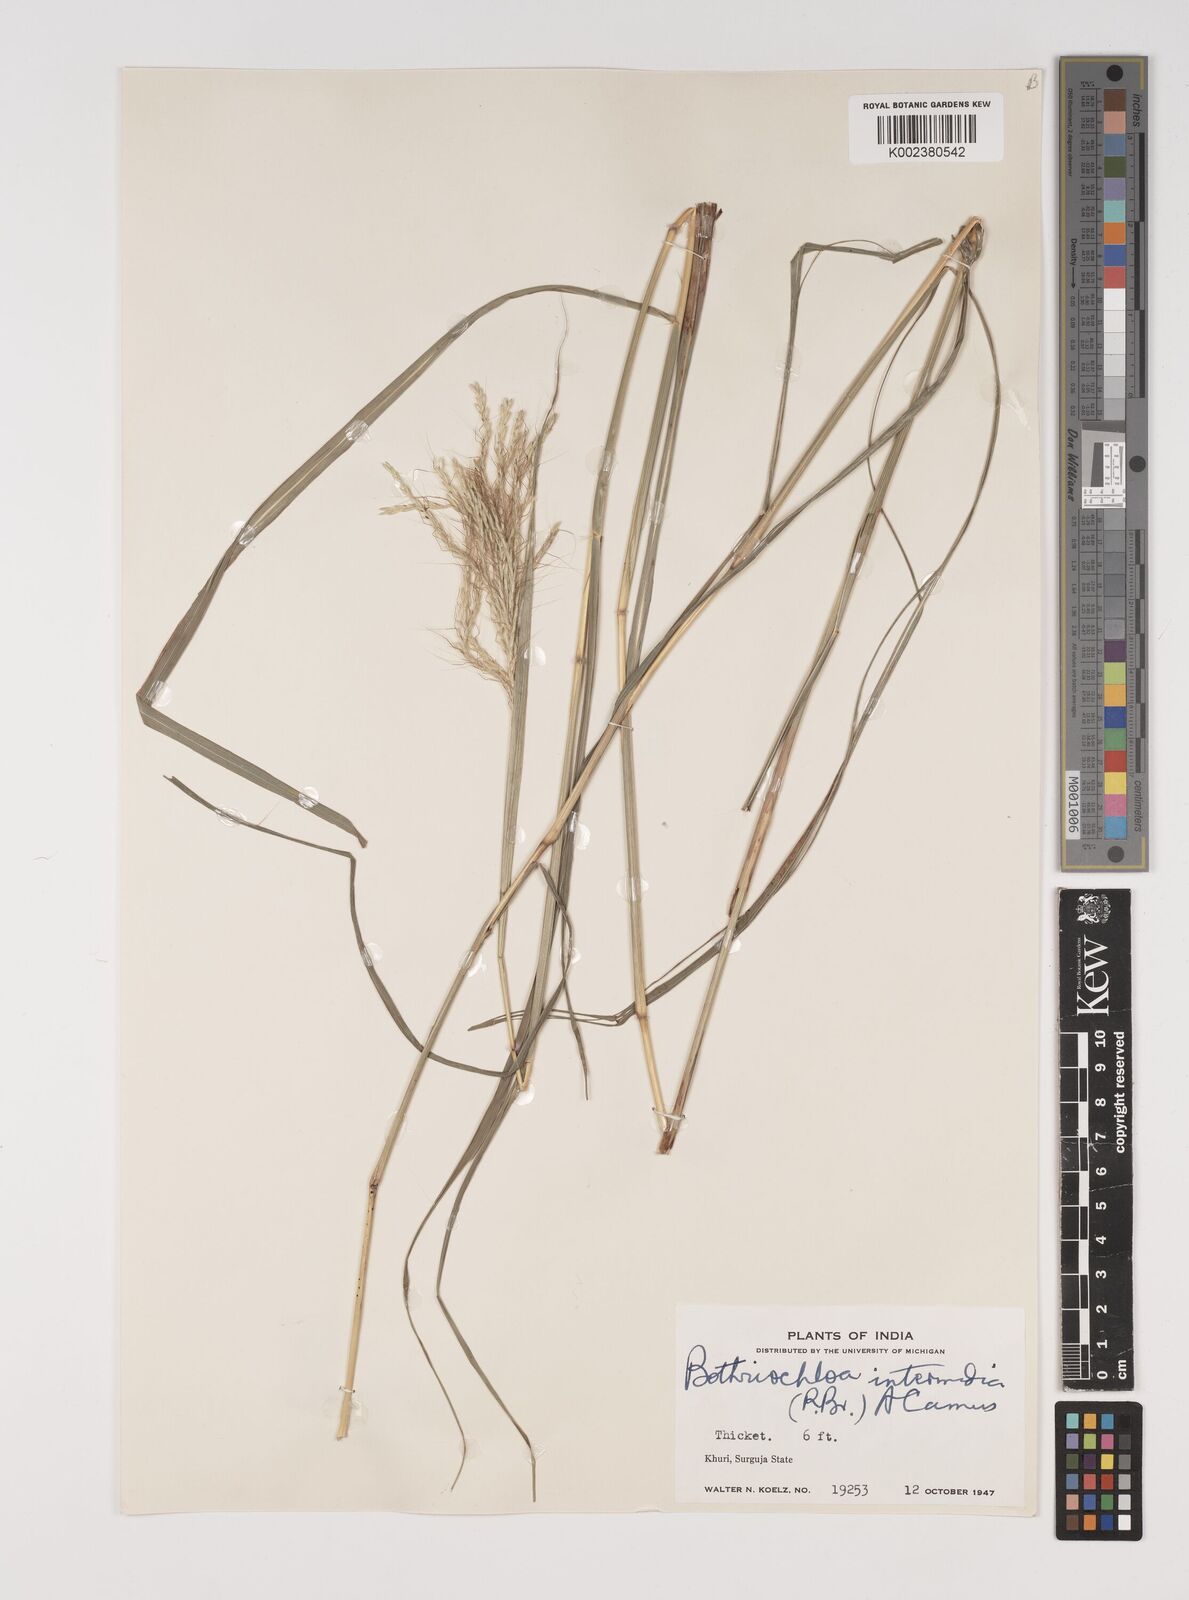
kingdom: Plantae
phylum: Tracheophyta
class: Liliopsida
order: Poales
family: Poaceae
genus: Bothriochloa
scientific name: Bothriochloa bladhii
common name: Caucasian bluestem
